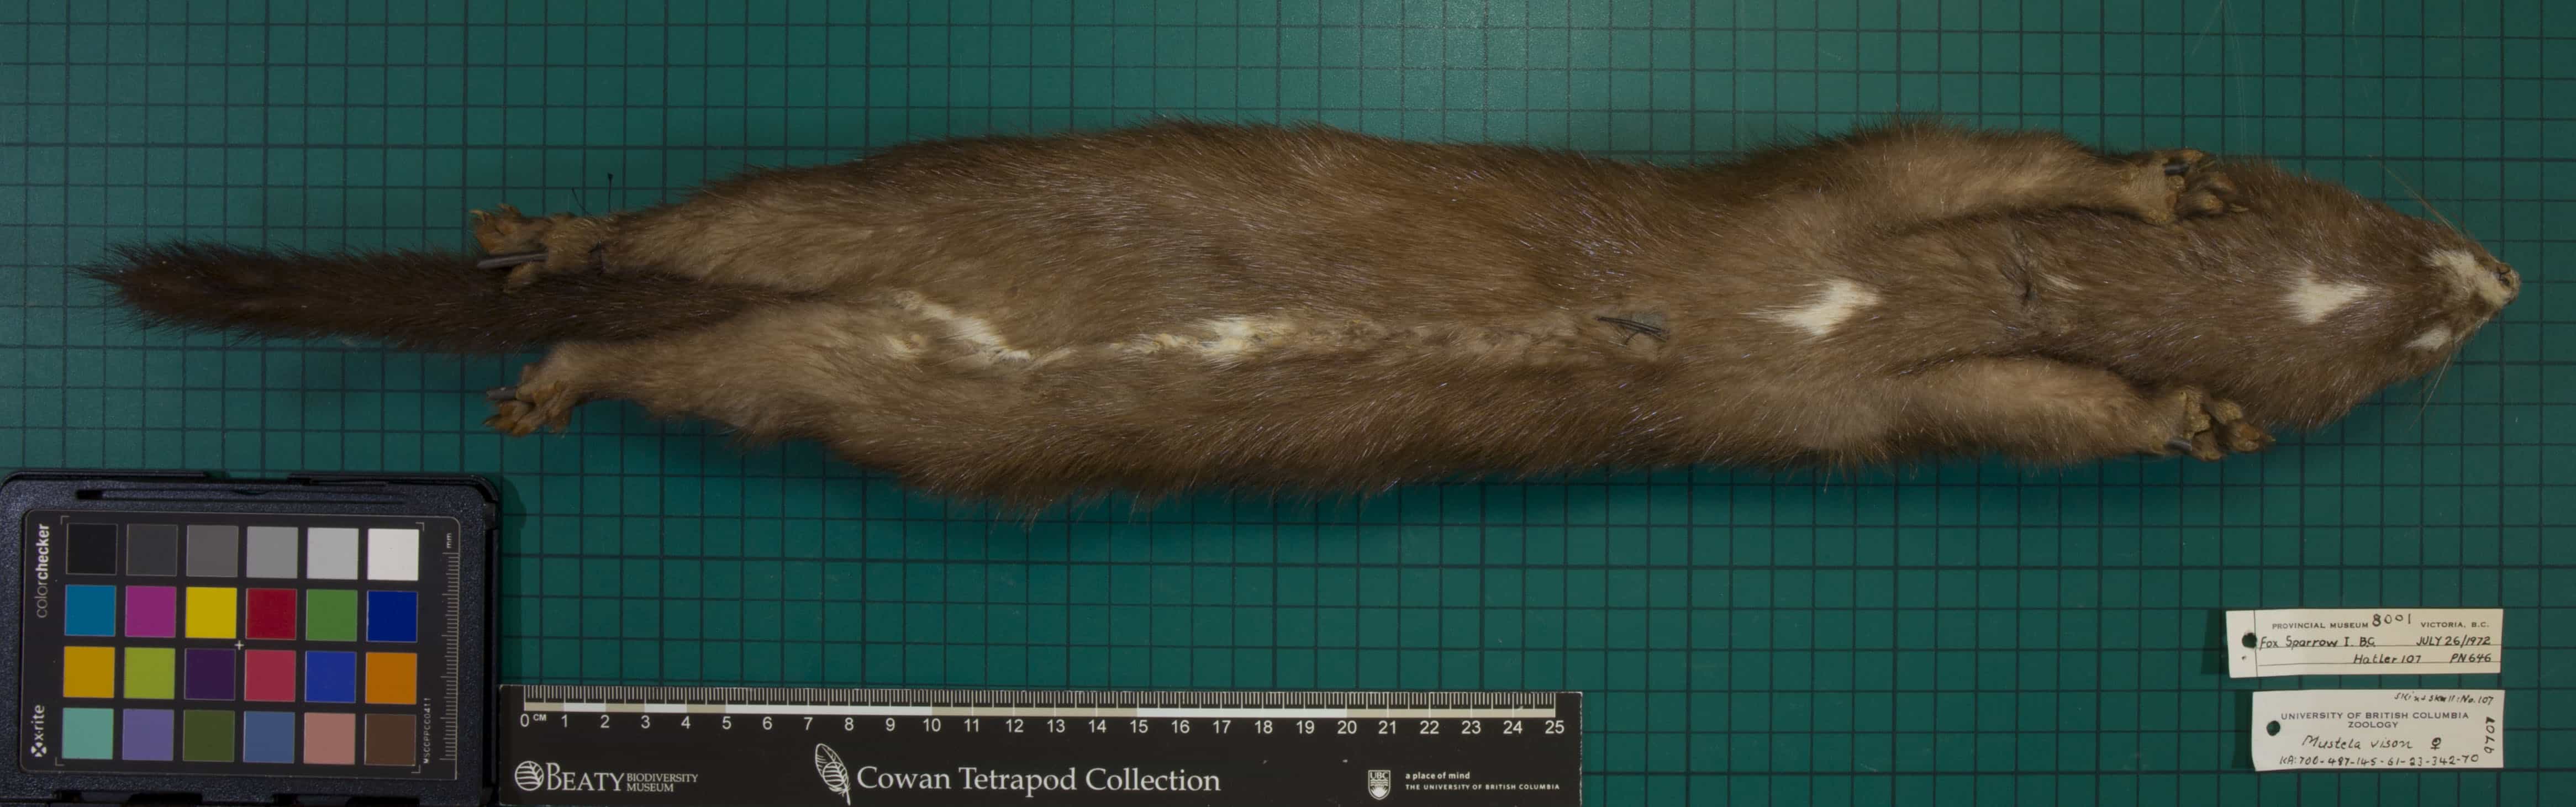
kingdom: Animalia
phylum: Chordata
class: Mammalia
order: Carnivora
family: Mustelidae
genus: Mustela
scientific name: Mustela vison
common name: American Mink
